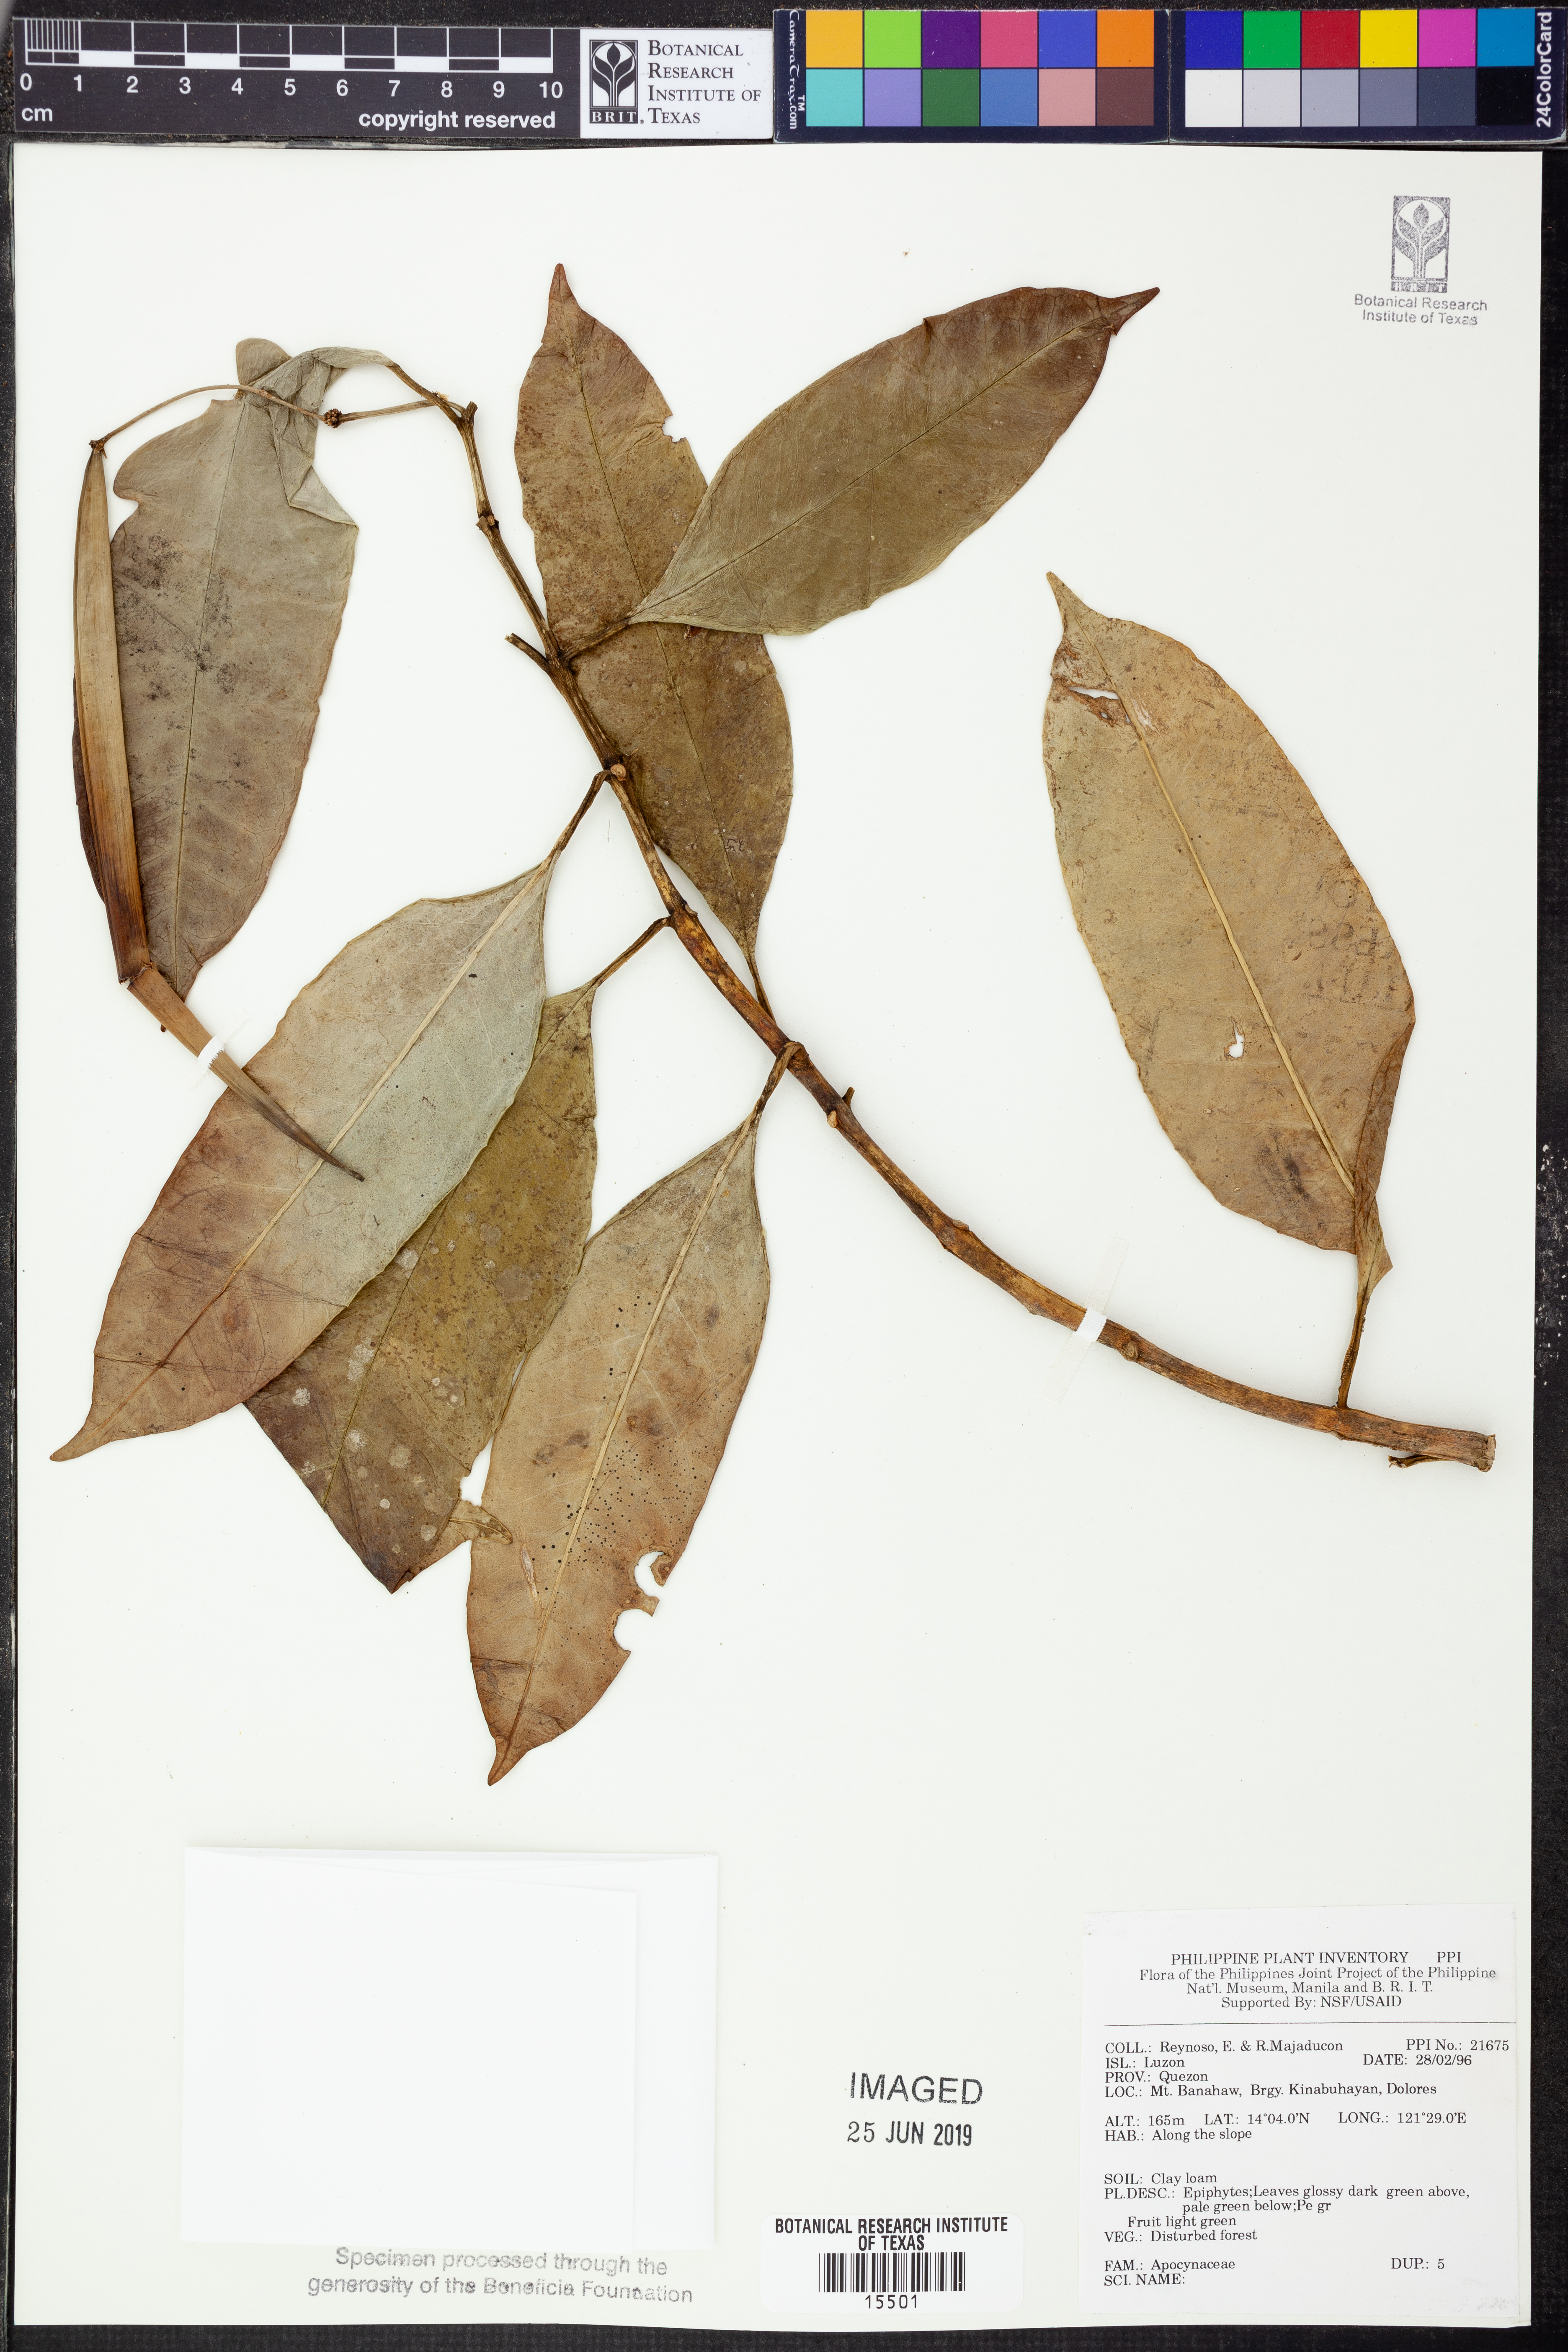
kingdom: Plantae
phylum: Tracheophyta
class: Magnoliopsida
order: Gentianales
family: Apocynaceae
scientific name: Apocynaceae
